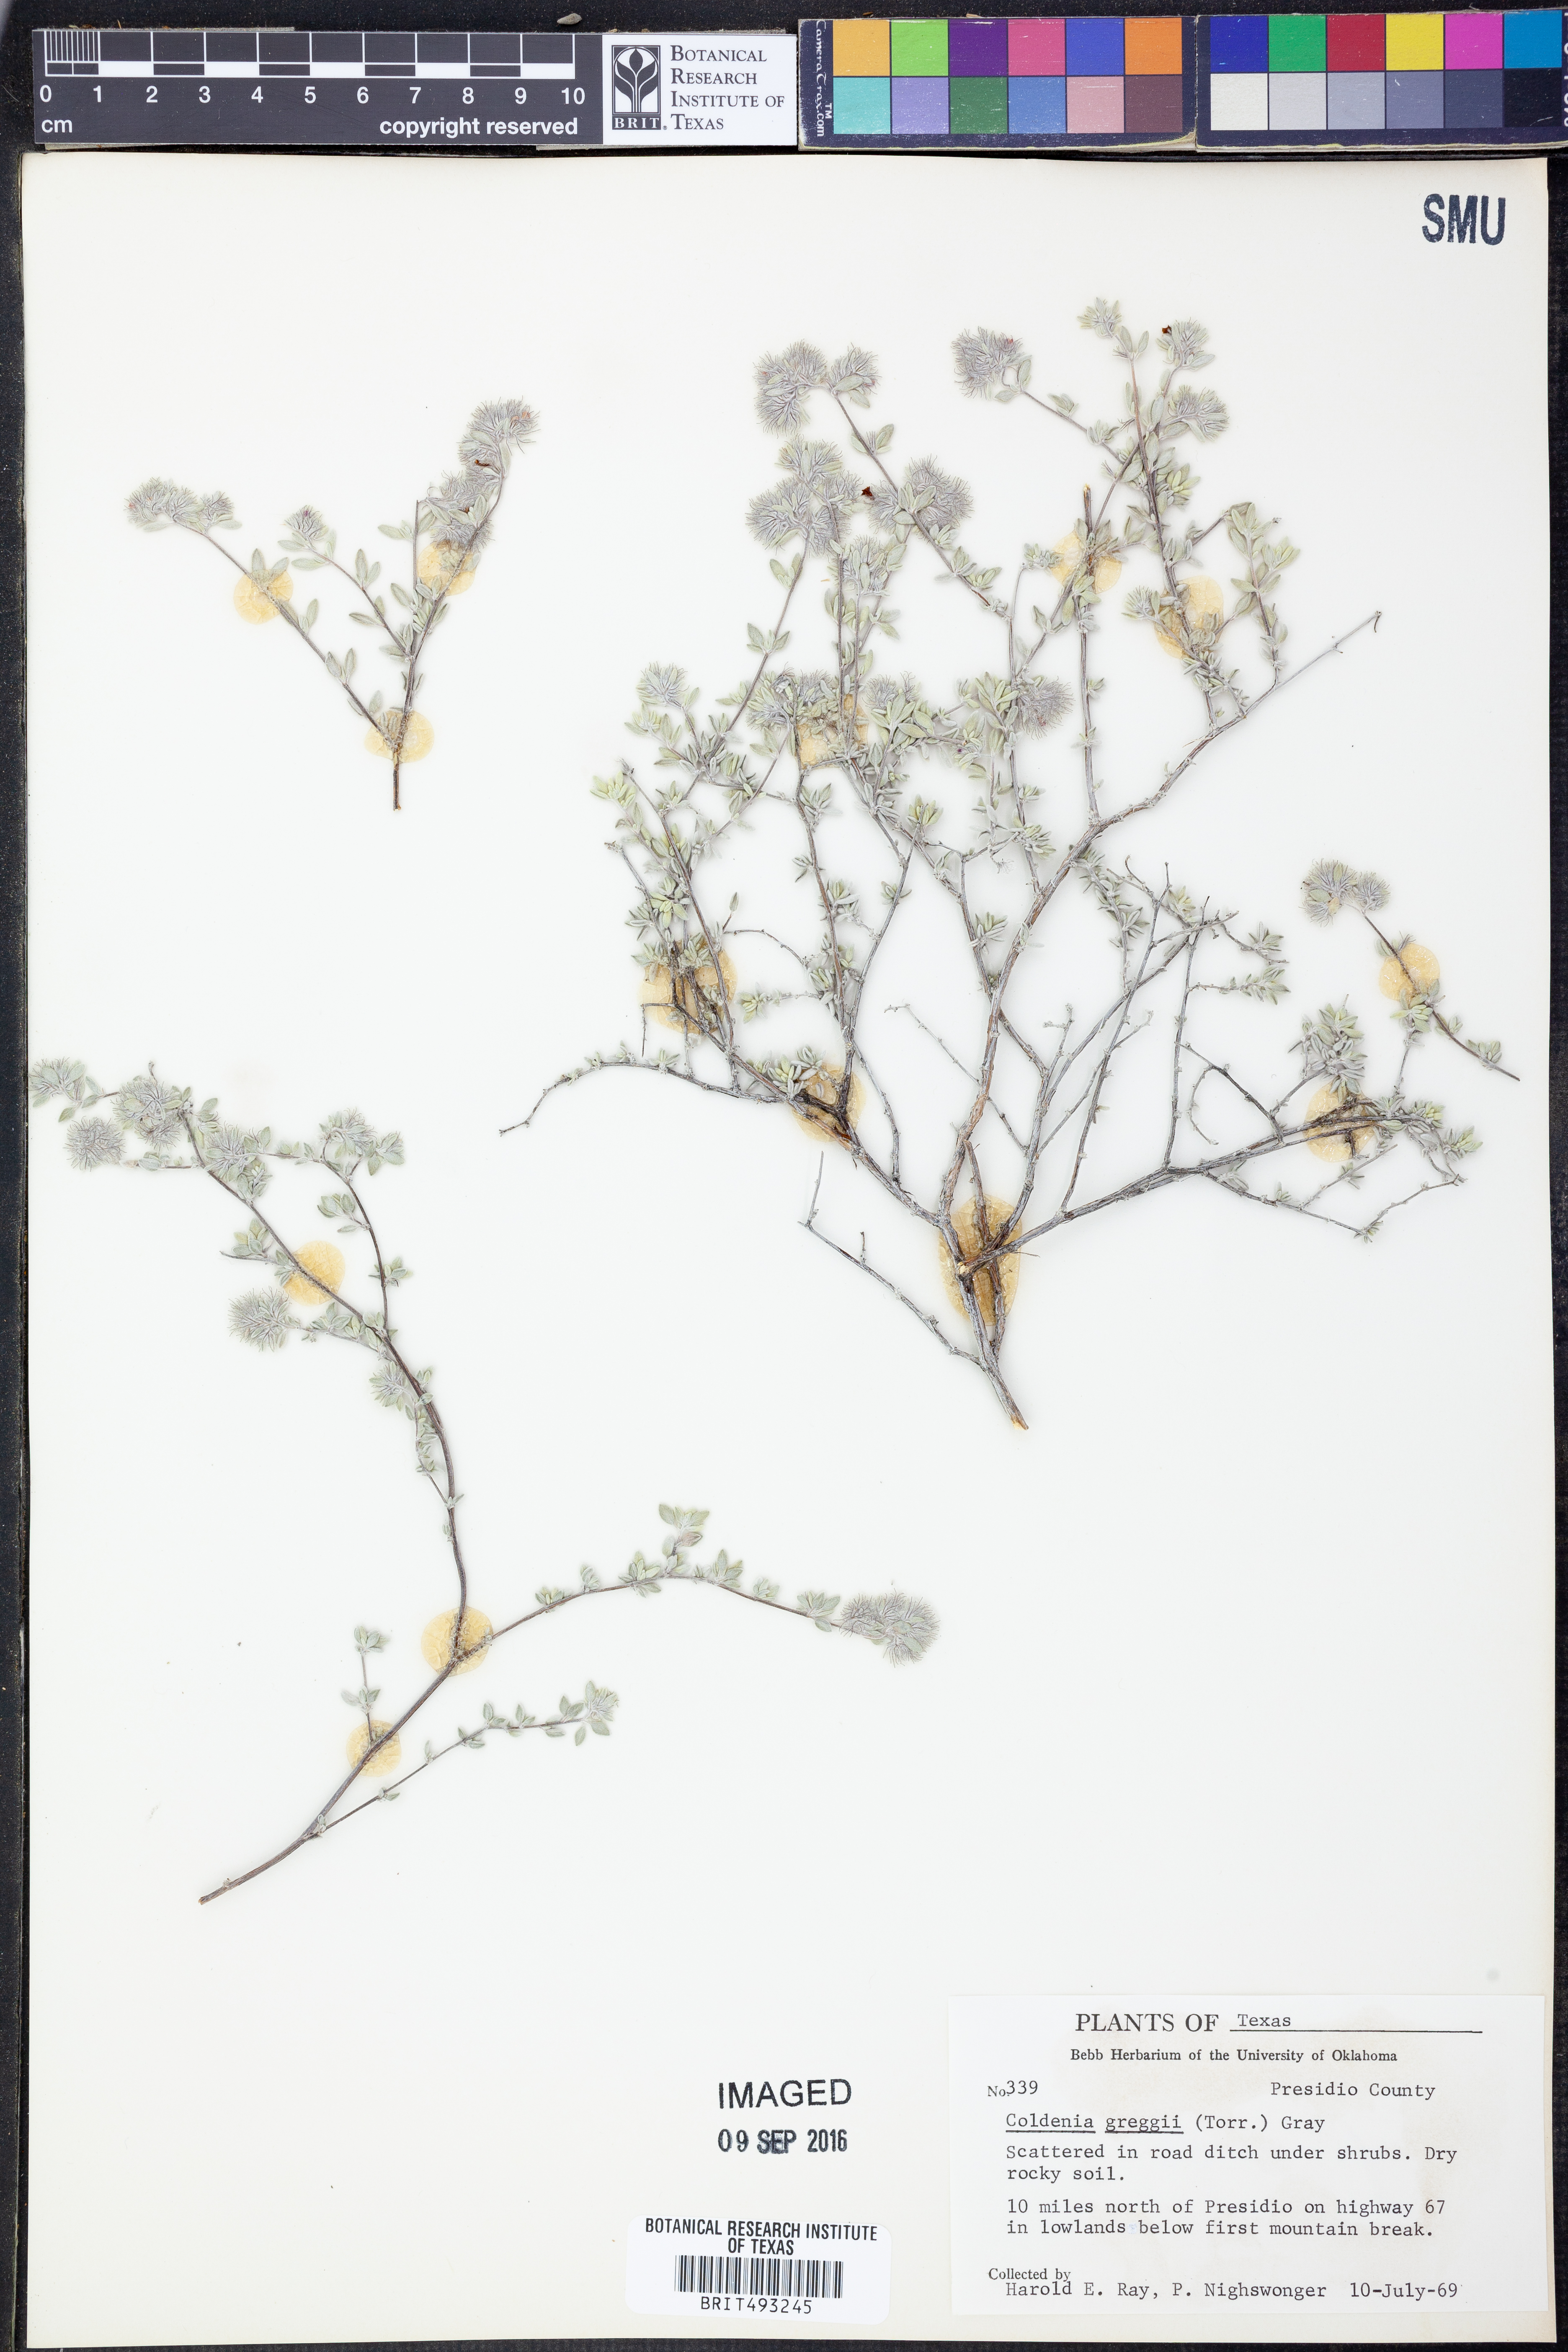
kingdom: Plantae
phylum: Tracheophyta
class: Magnoliopsida
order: Boraginales
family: Ehretiaceae
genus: Tiquilia
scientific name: Tiquilia greggii
